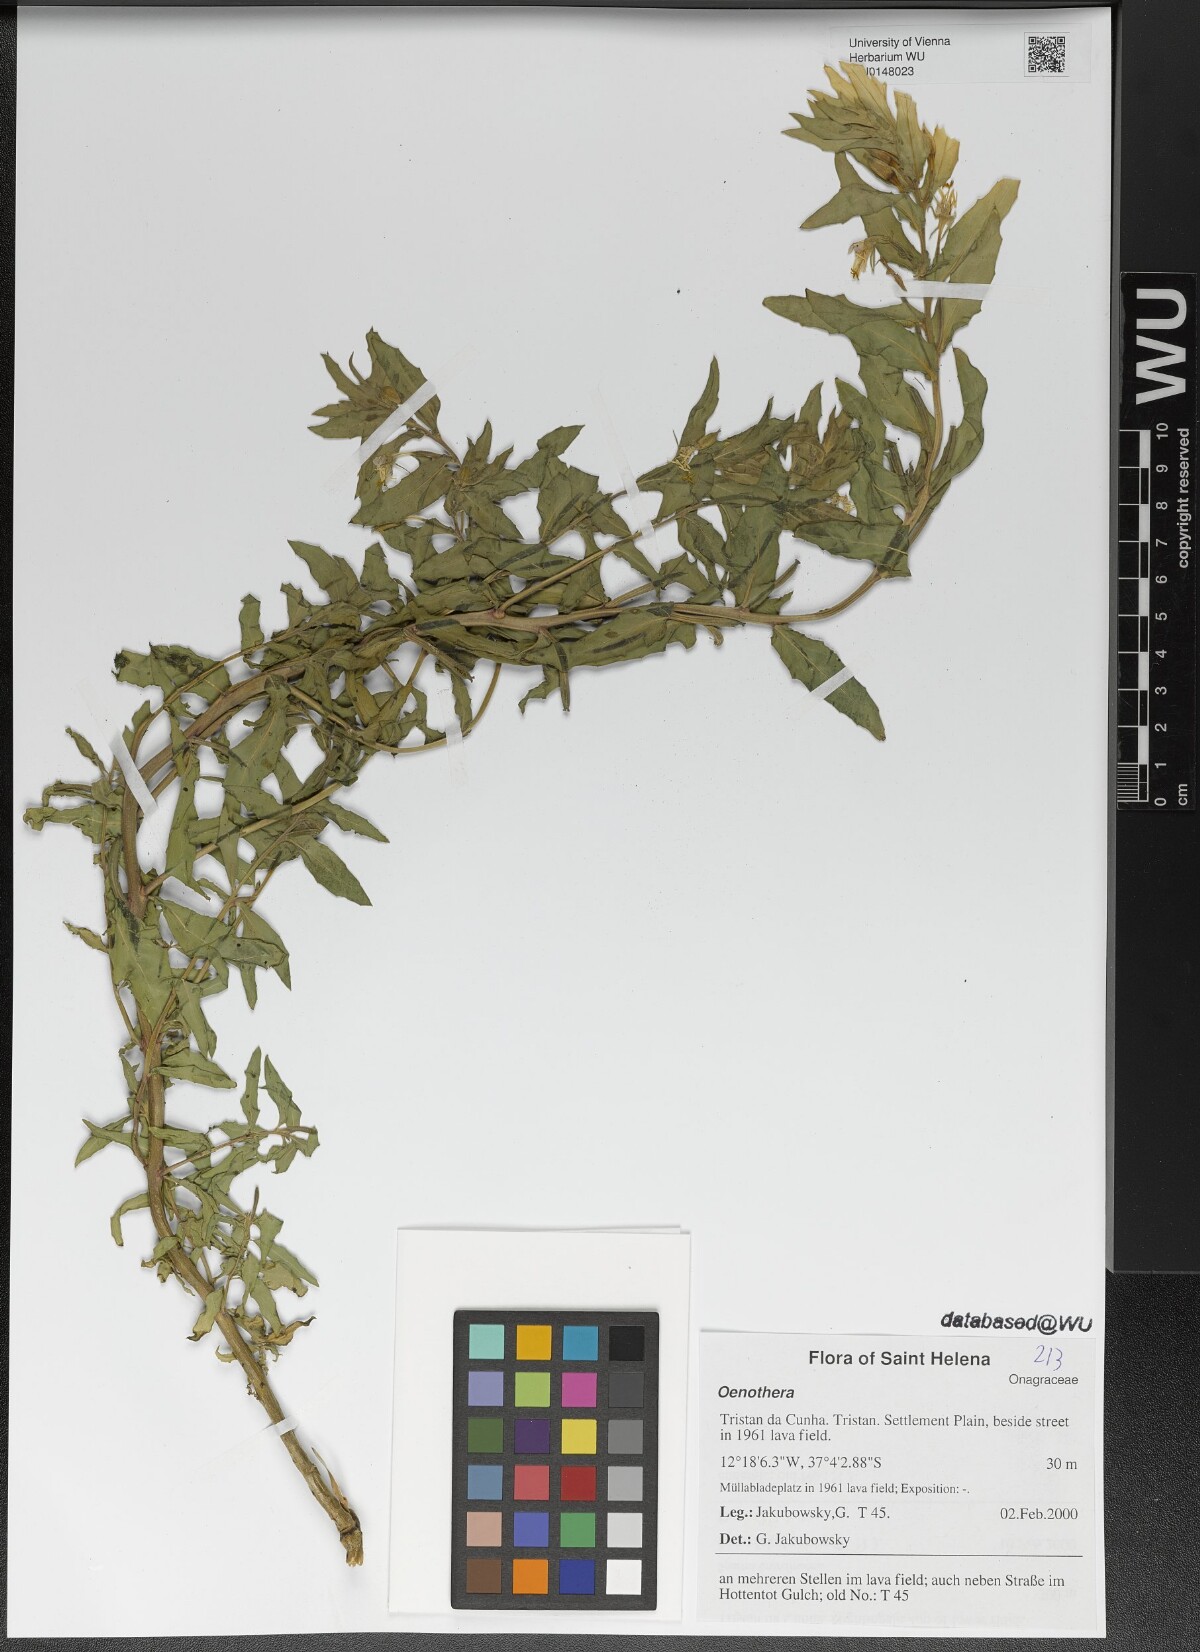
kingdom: Plantae
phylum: Tracheophyta
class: Magnoliopsida
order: Myrtales
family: Onagraceae
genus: Oenothera
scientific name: Oenothera
